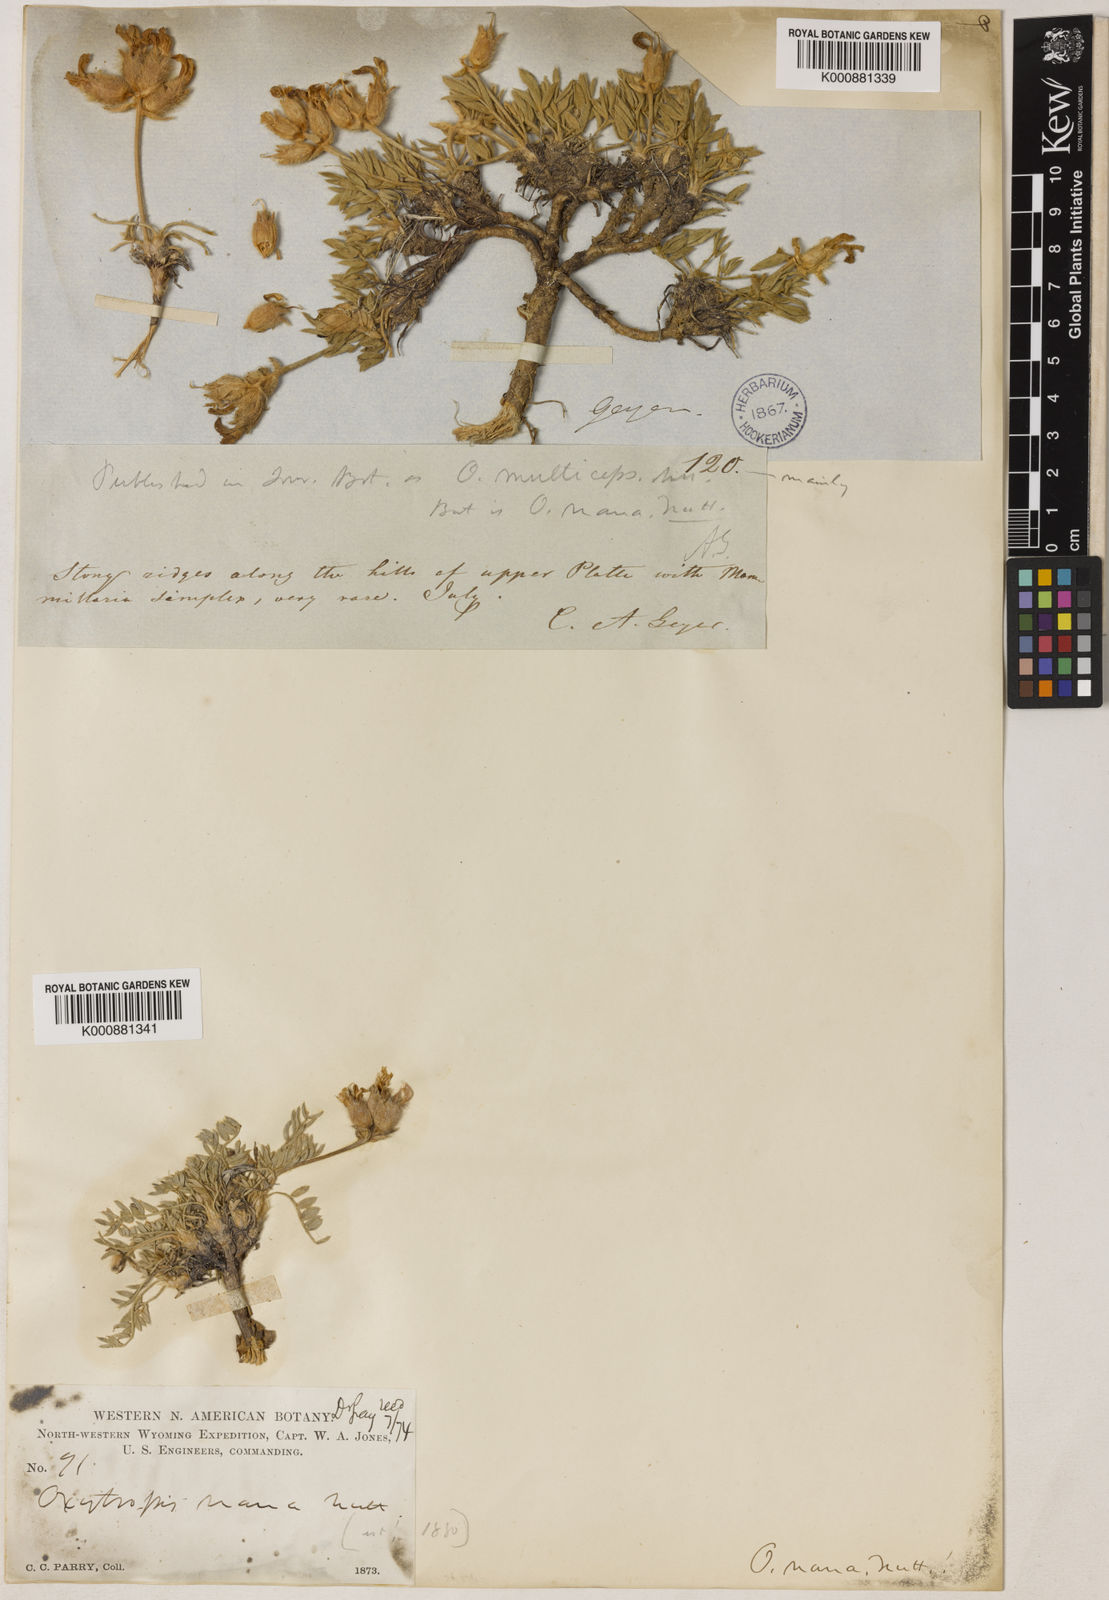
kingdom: Plantae
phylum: Tracheophyta
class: Magnoliopsida
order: Ericales
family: Polemoniaceae
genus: Ipomopsis
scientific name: Ipomopsis congesta
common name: Ball-head gilia
